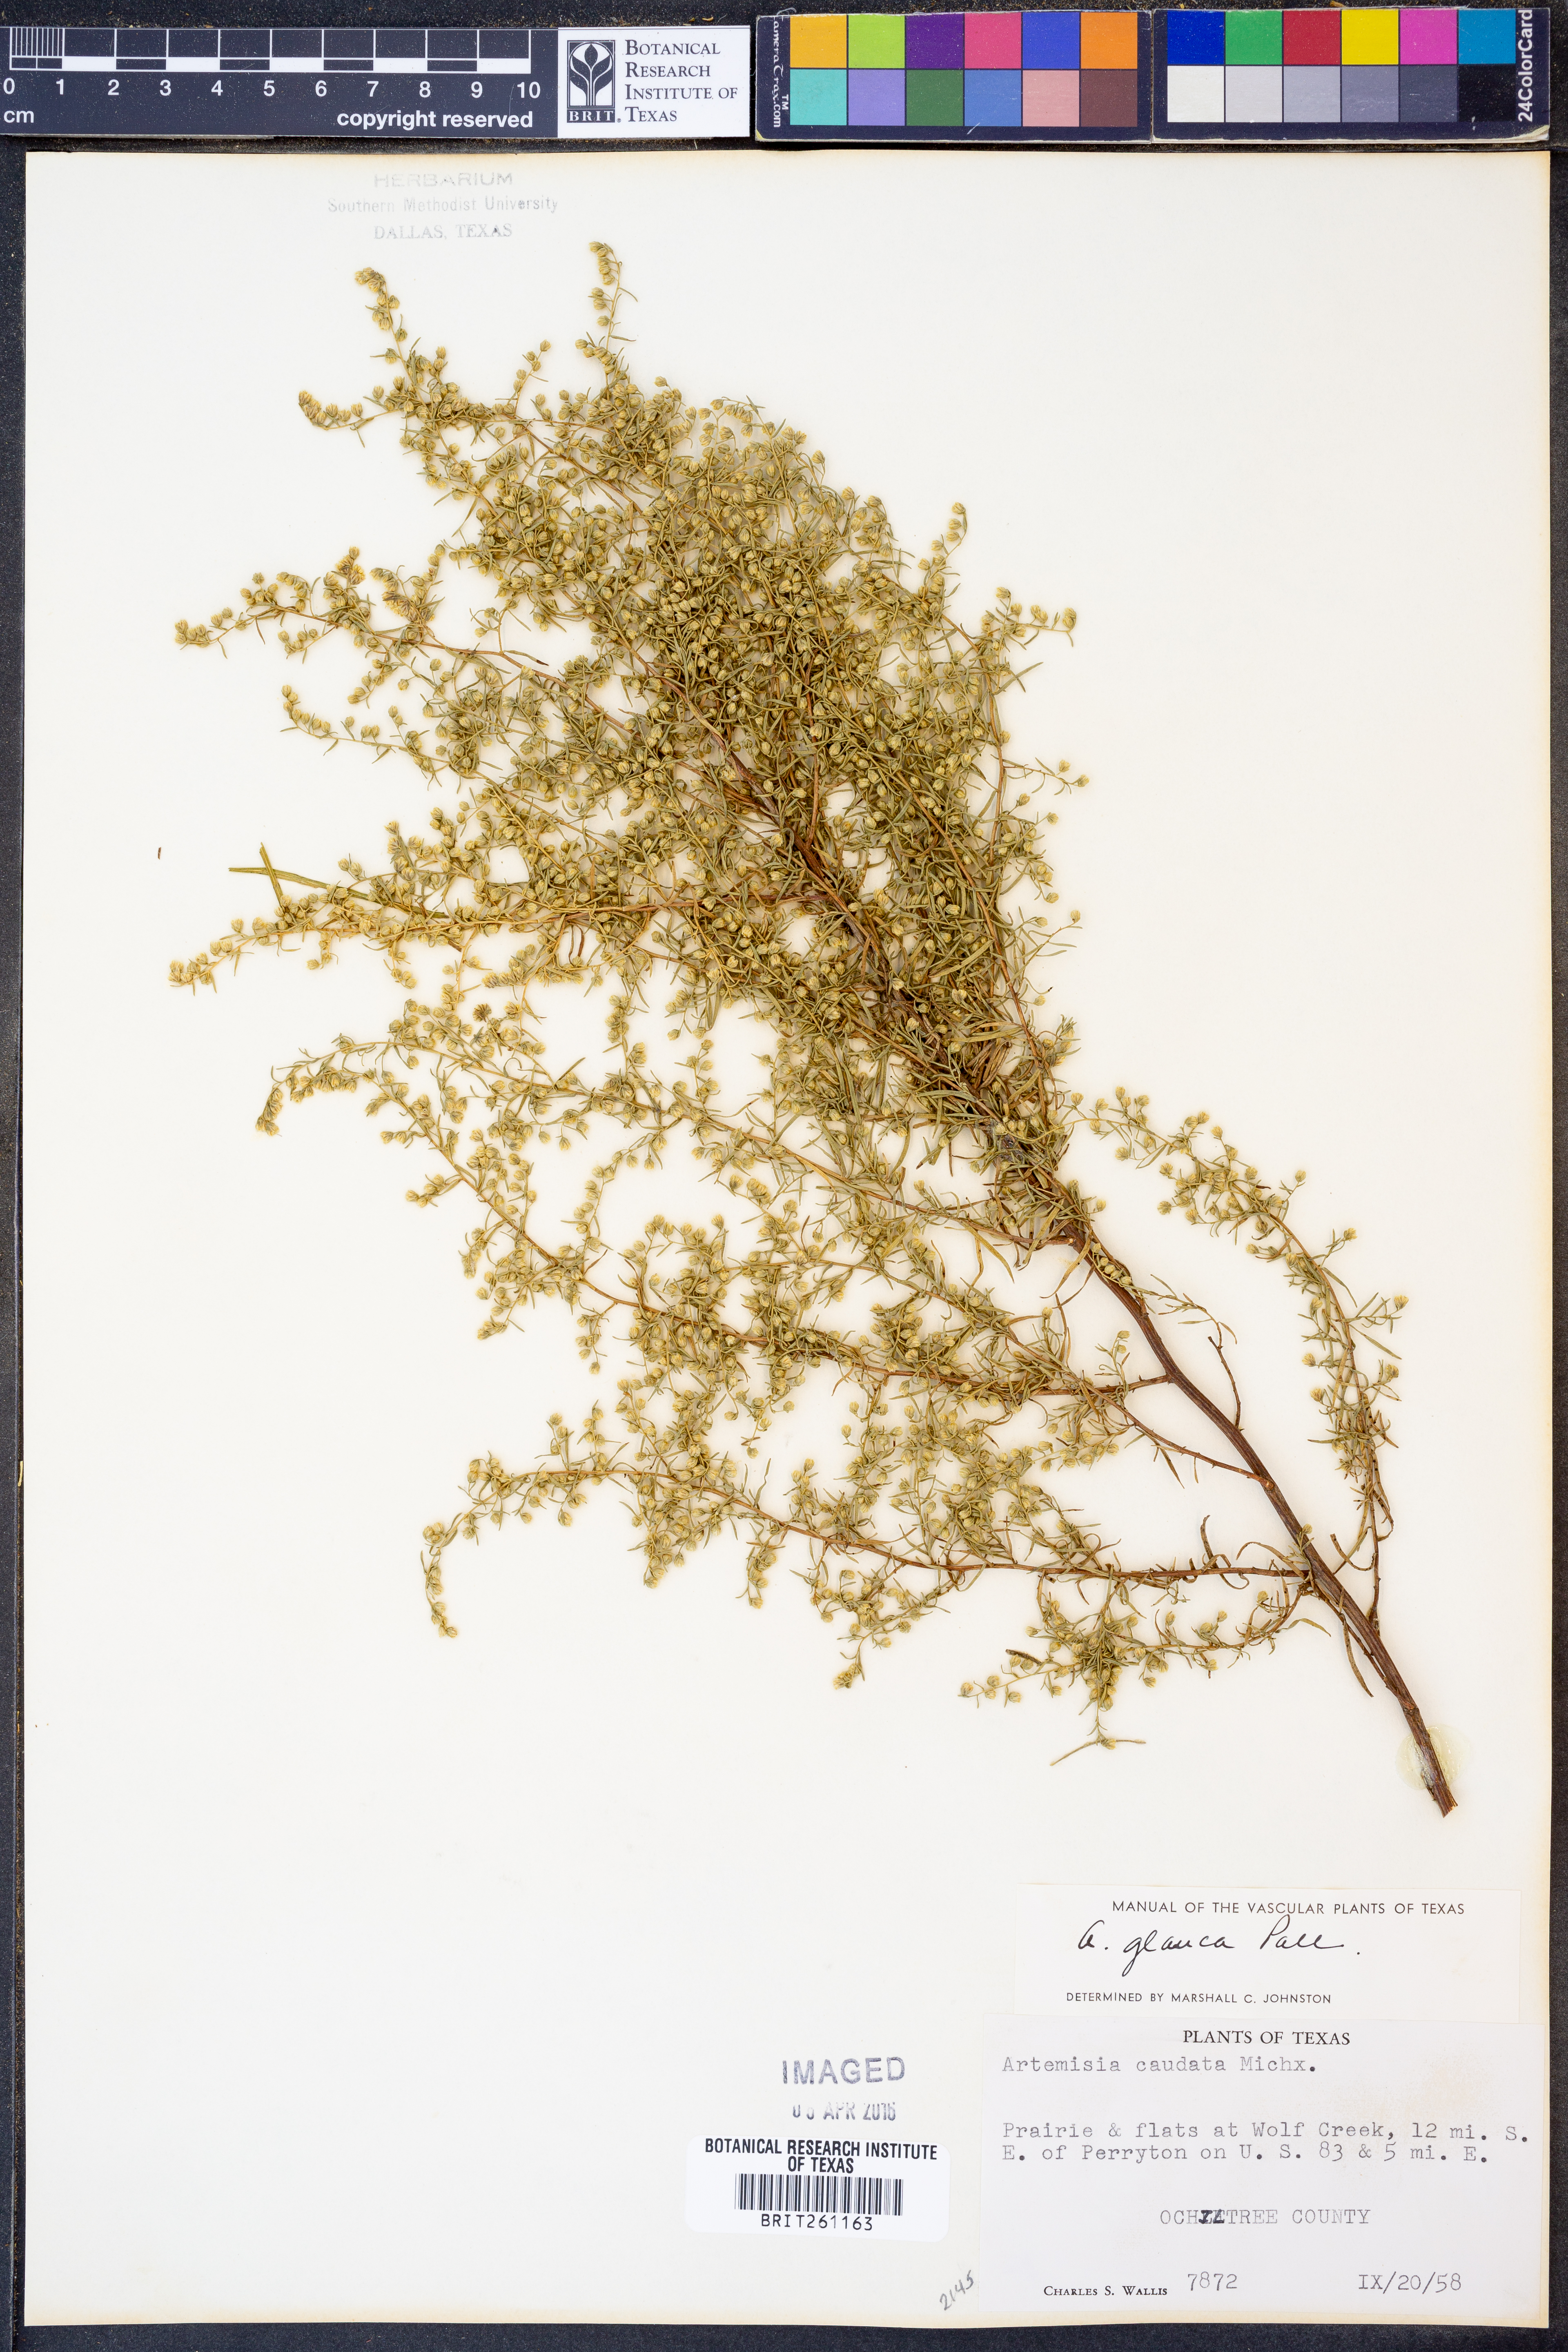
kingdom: Plantae
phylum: Tracheophyta
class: Magnoliopsida
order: Asterales
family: Asteraceae
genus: Artemisia
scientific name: Artemisia glauca
